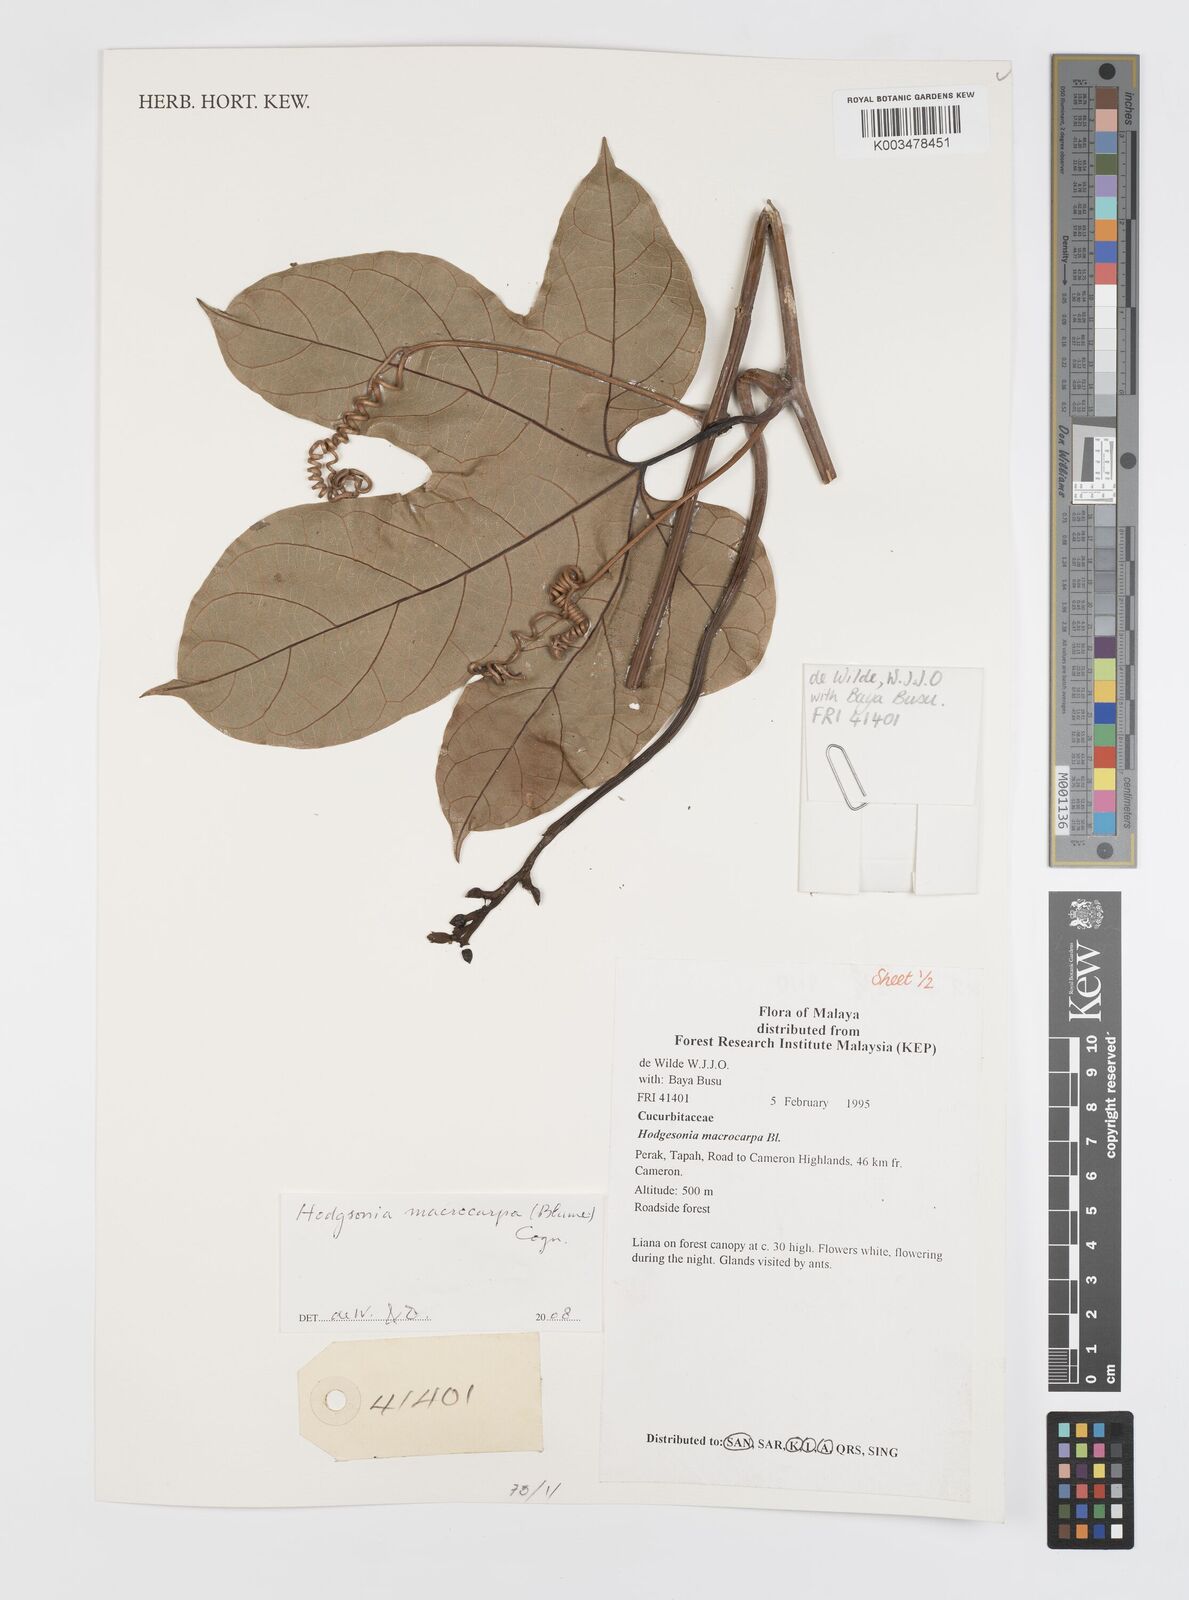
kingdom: Plantae
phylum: Tracheophyta
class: Magnoliopsida
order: Cucurbitales
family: Cucurbitaceae
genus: Hodgsonia
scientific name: Hodgsonia macrocarpa
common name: Chinese lardfruit
